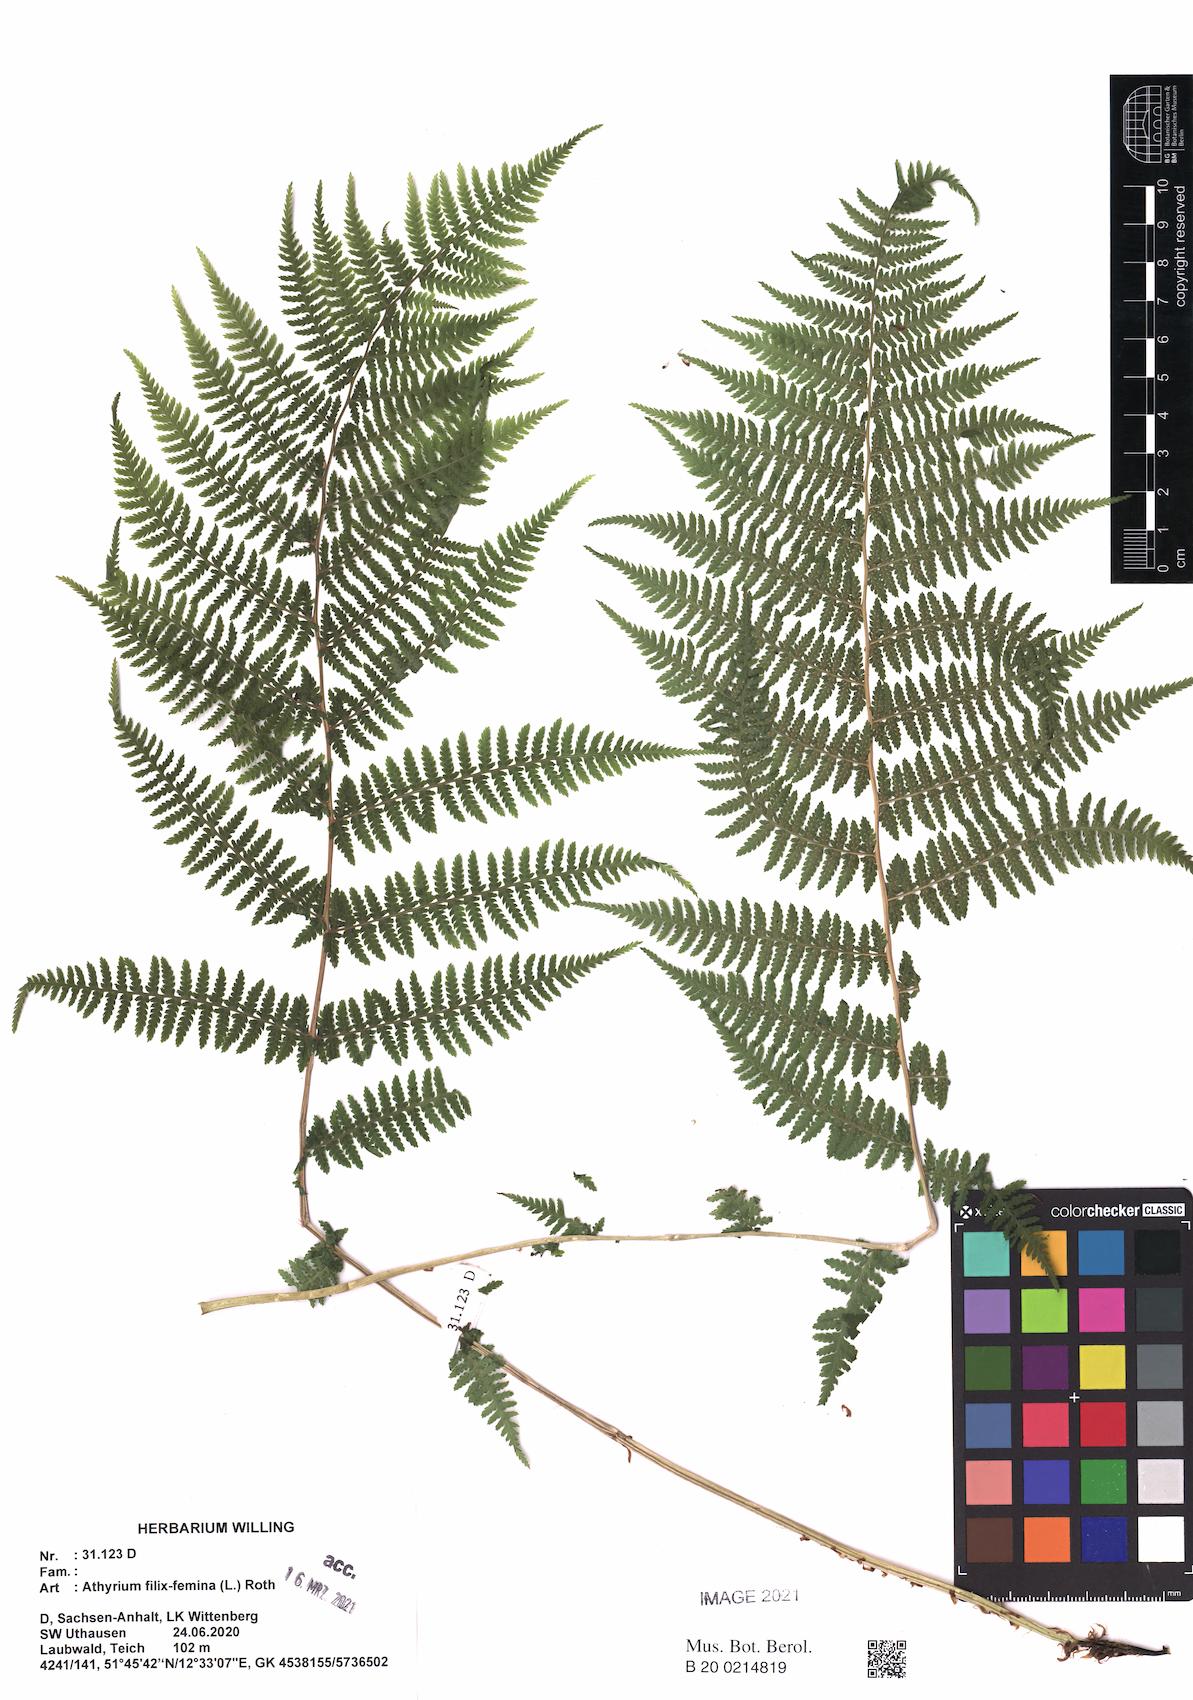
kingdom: Plantae
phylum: Tracheophyta
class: Polypodiopsida
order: Polypodiales
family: Athyriaceae
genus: Athyrium
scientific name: Athyrium filix-femina
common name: Lady fern
